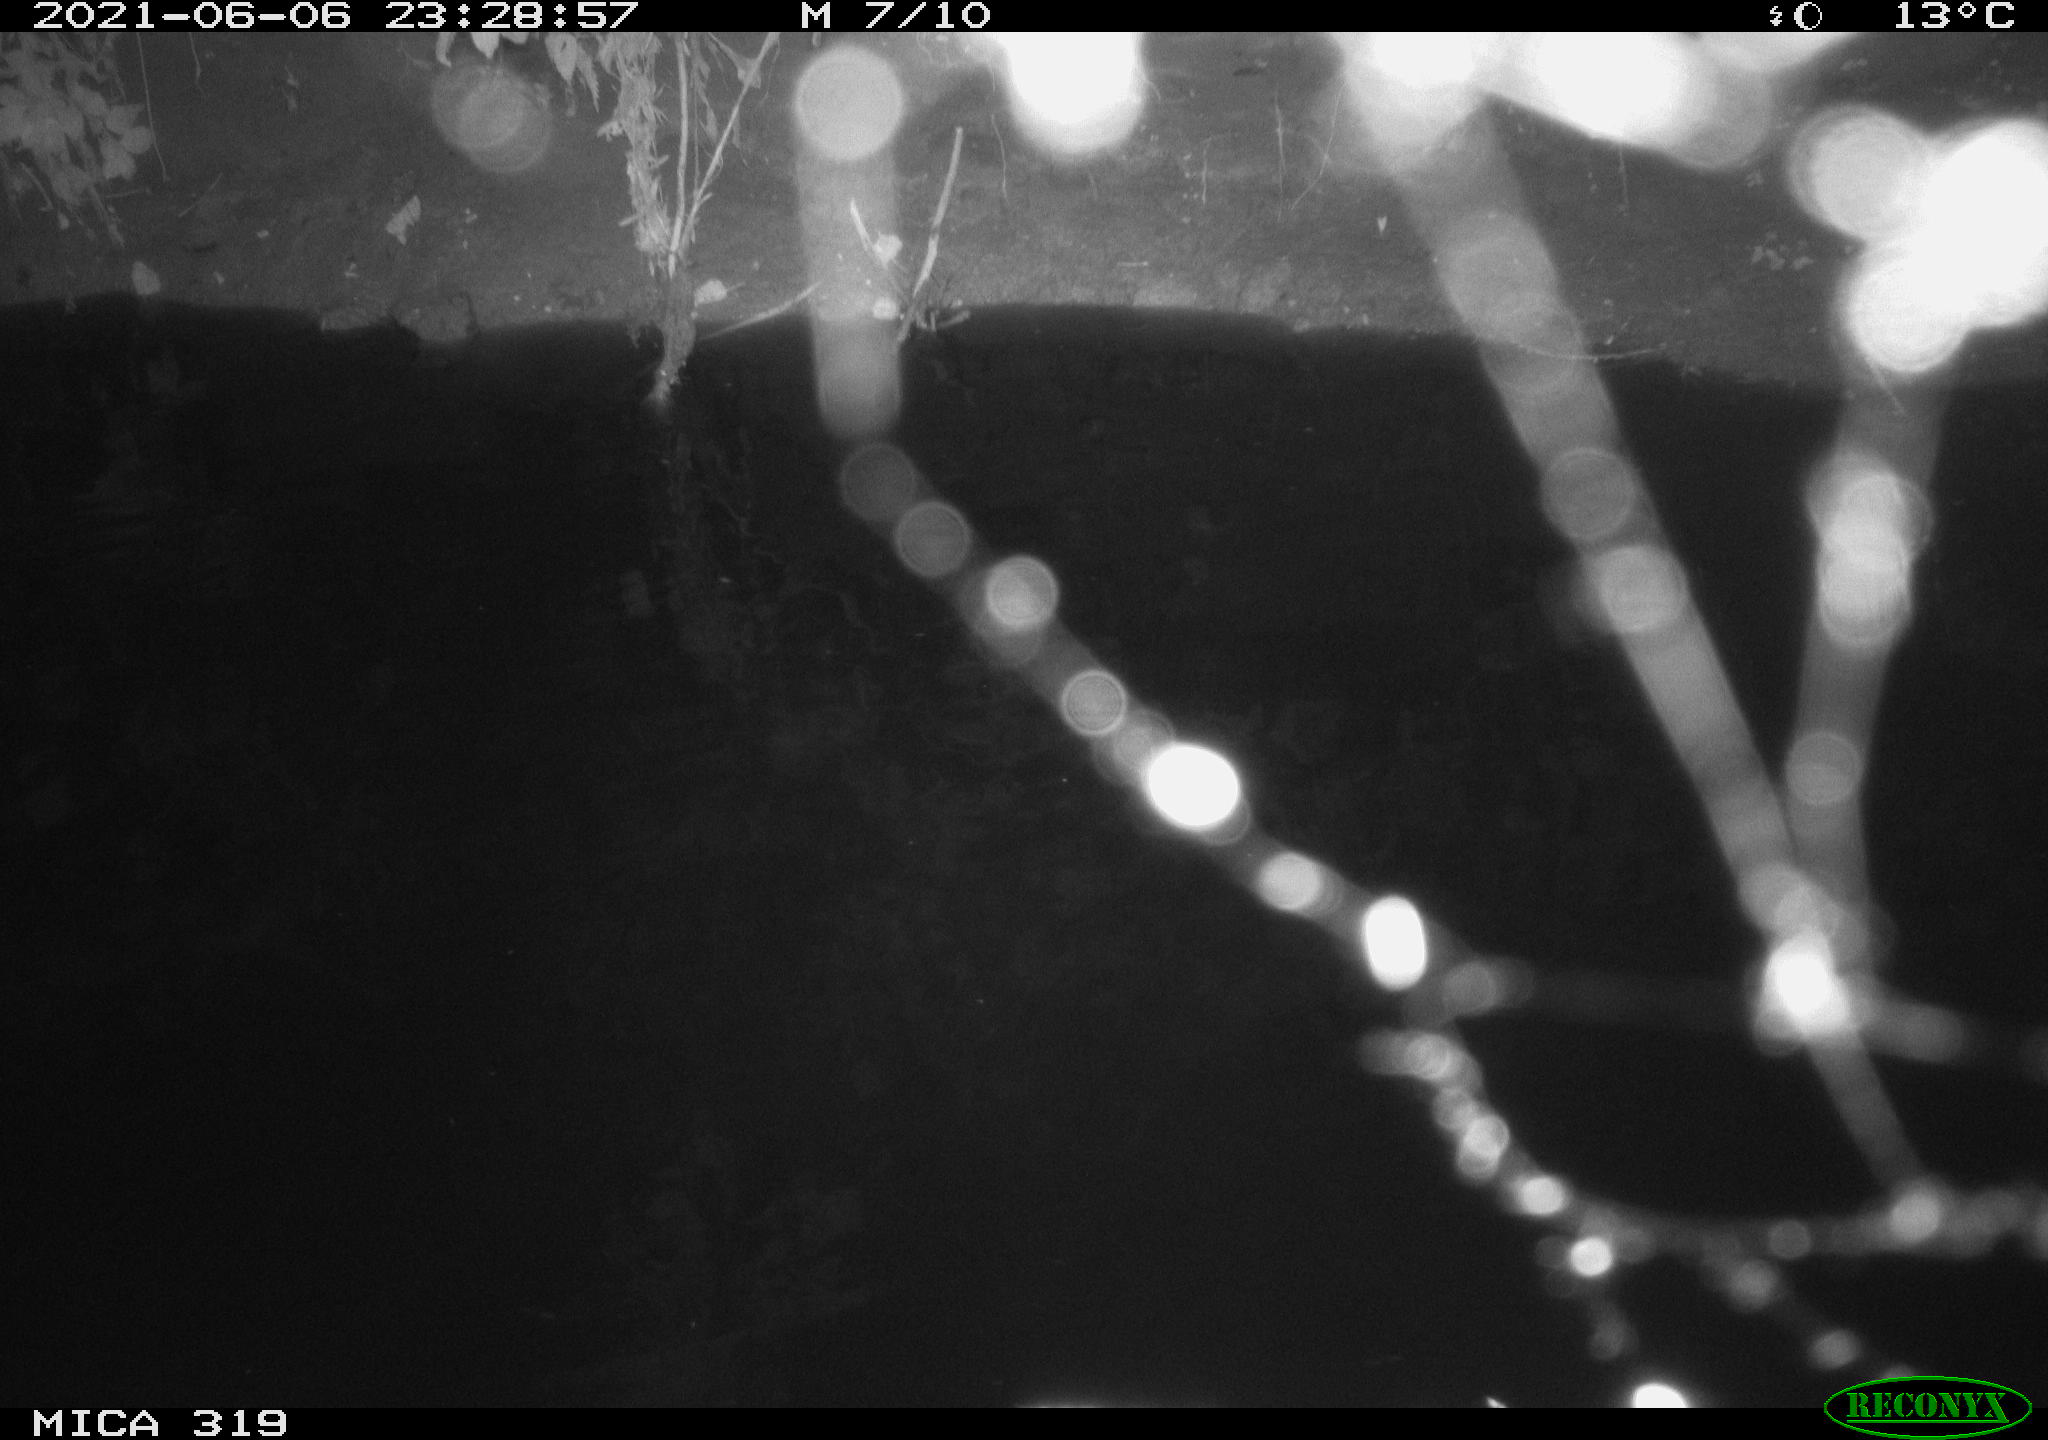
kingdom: Animalia
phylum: Chordata
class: Aves
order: Anseriformes
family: Anatidae
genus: Anas
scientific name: Anas platyrhynchos
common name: Mallard
